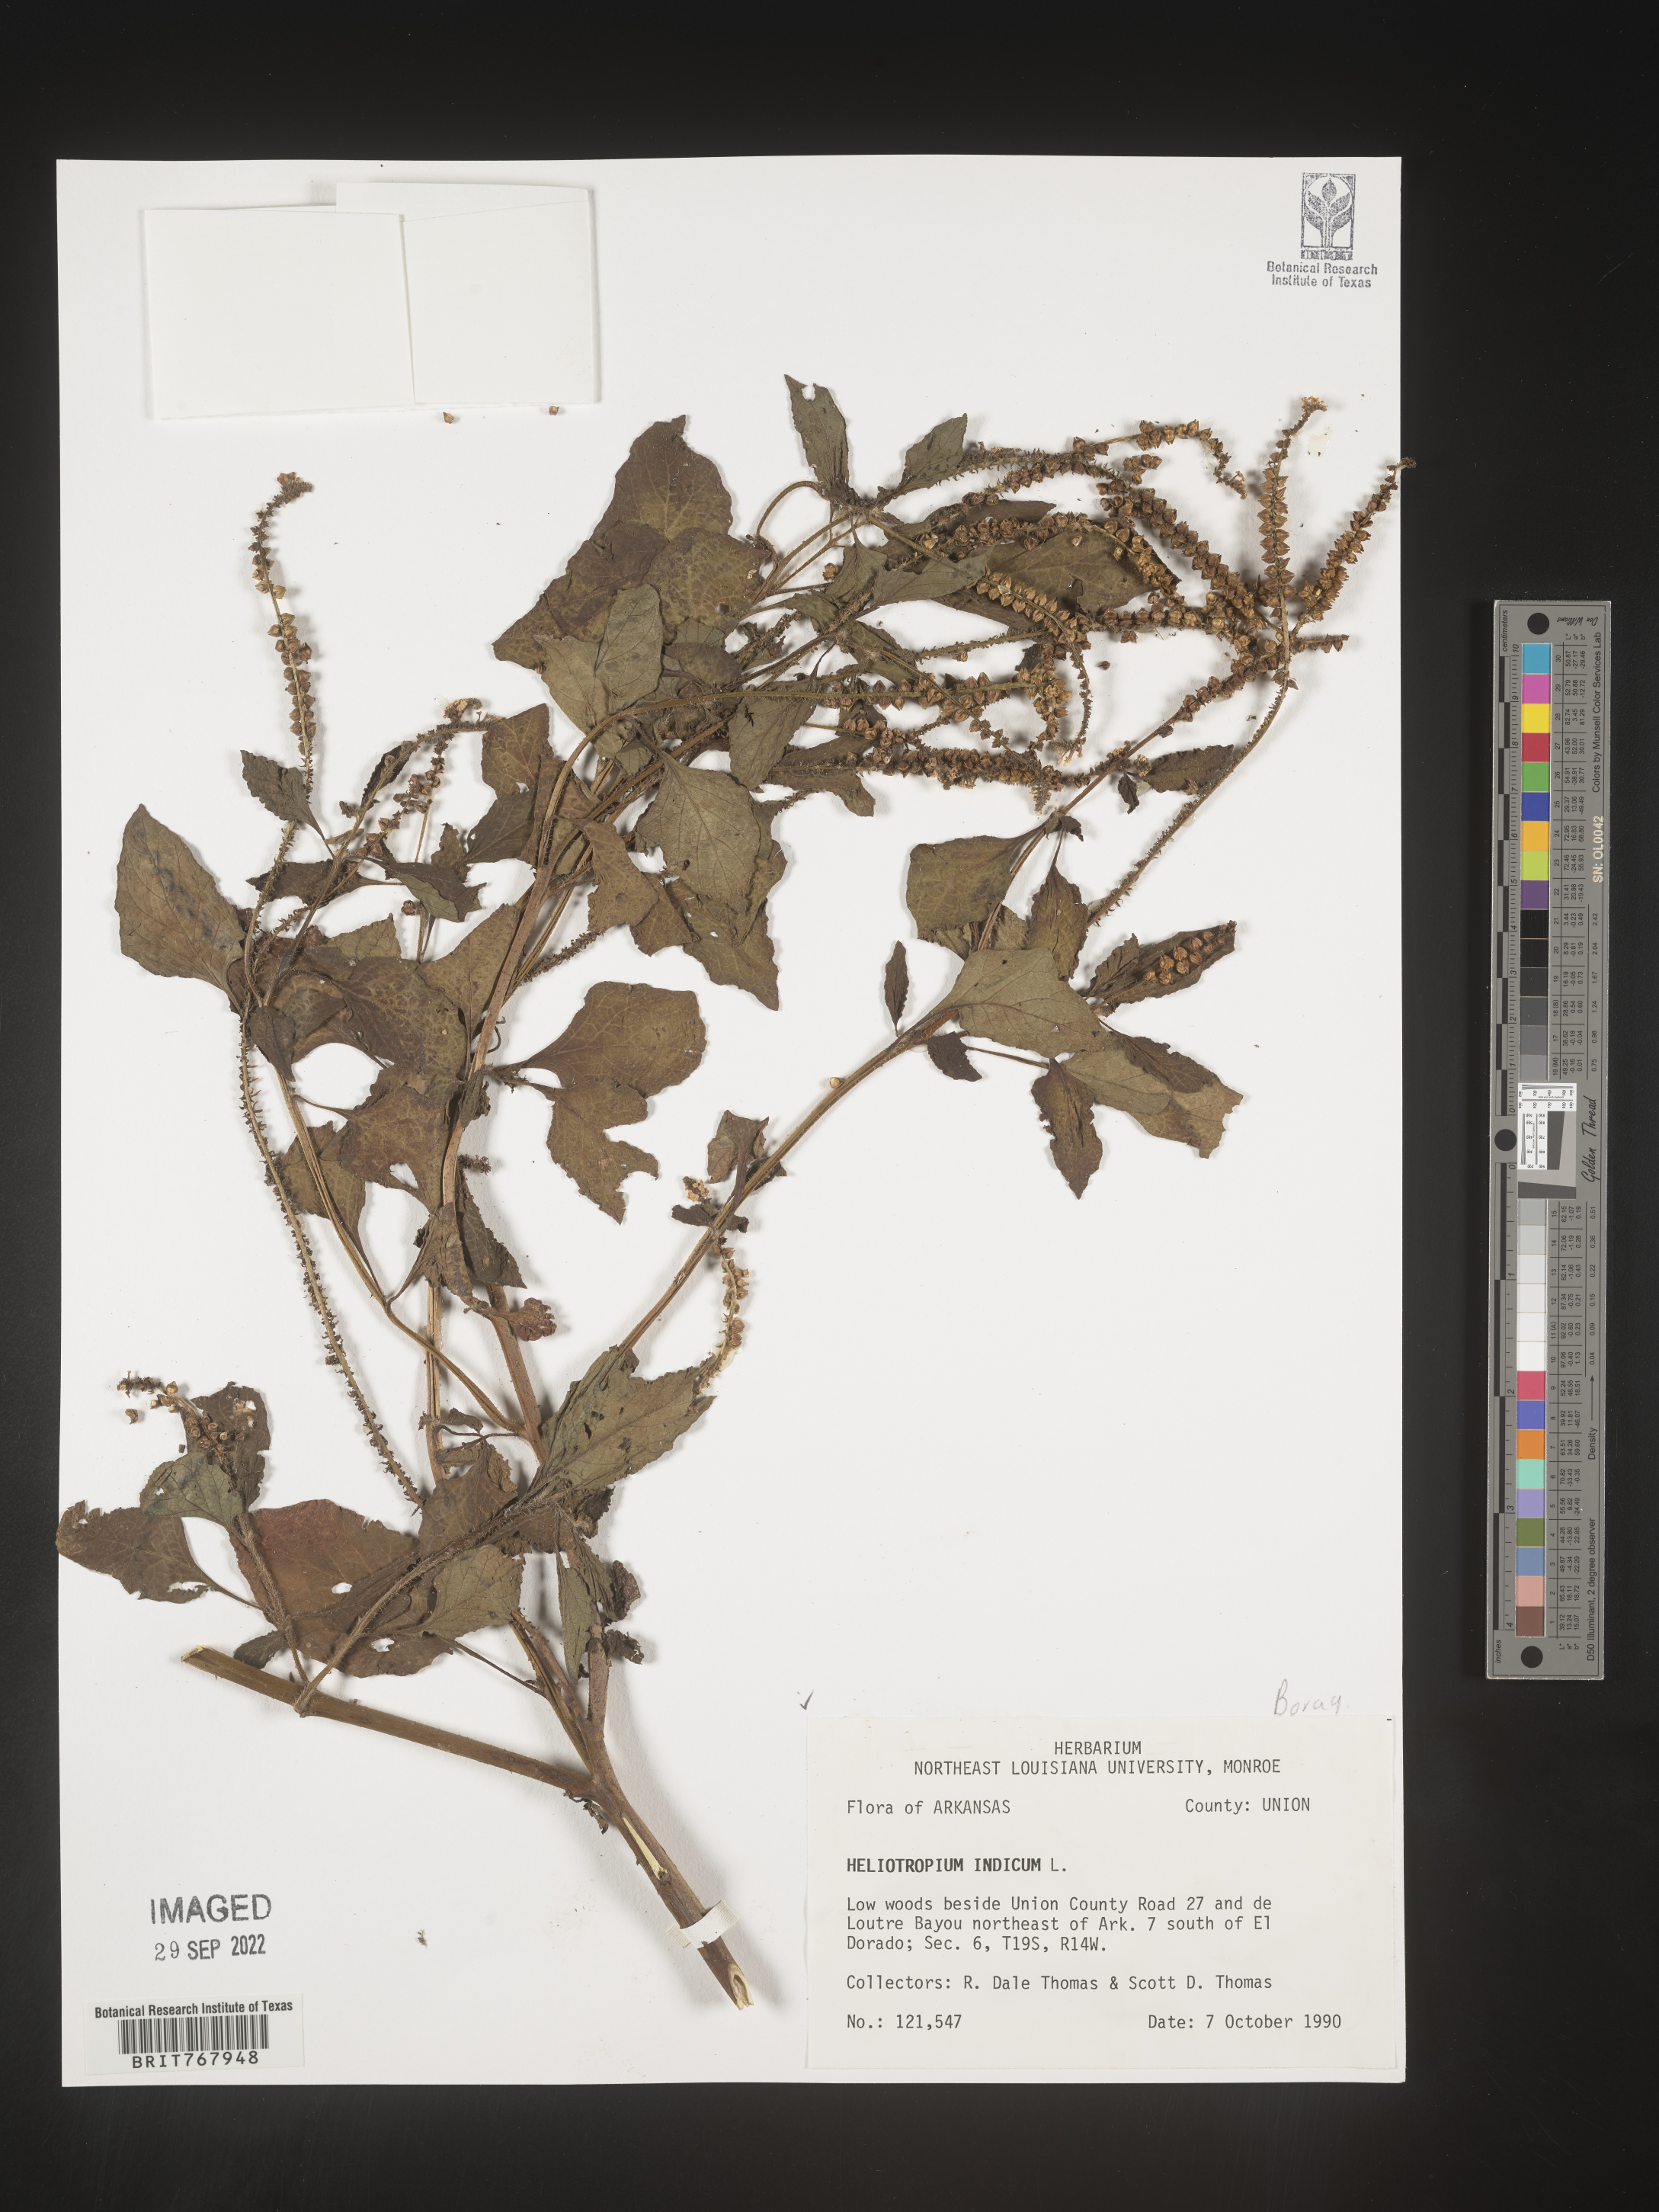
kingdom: Plantae
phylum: Tracheophyta
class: Magnoliopsida
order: Boraginales
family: Heliotropiaceae
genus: Heliotropium
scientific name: Heliotropium indicum
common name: Indian heliotrope
